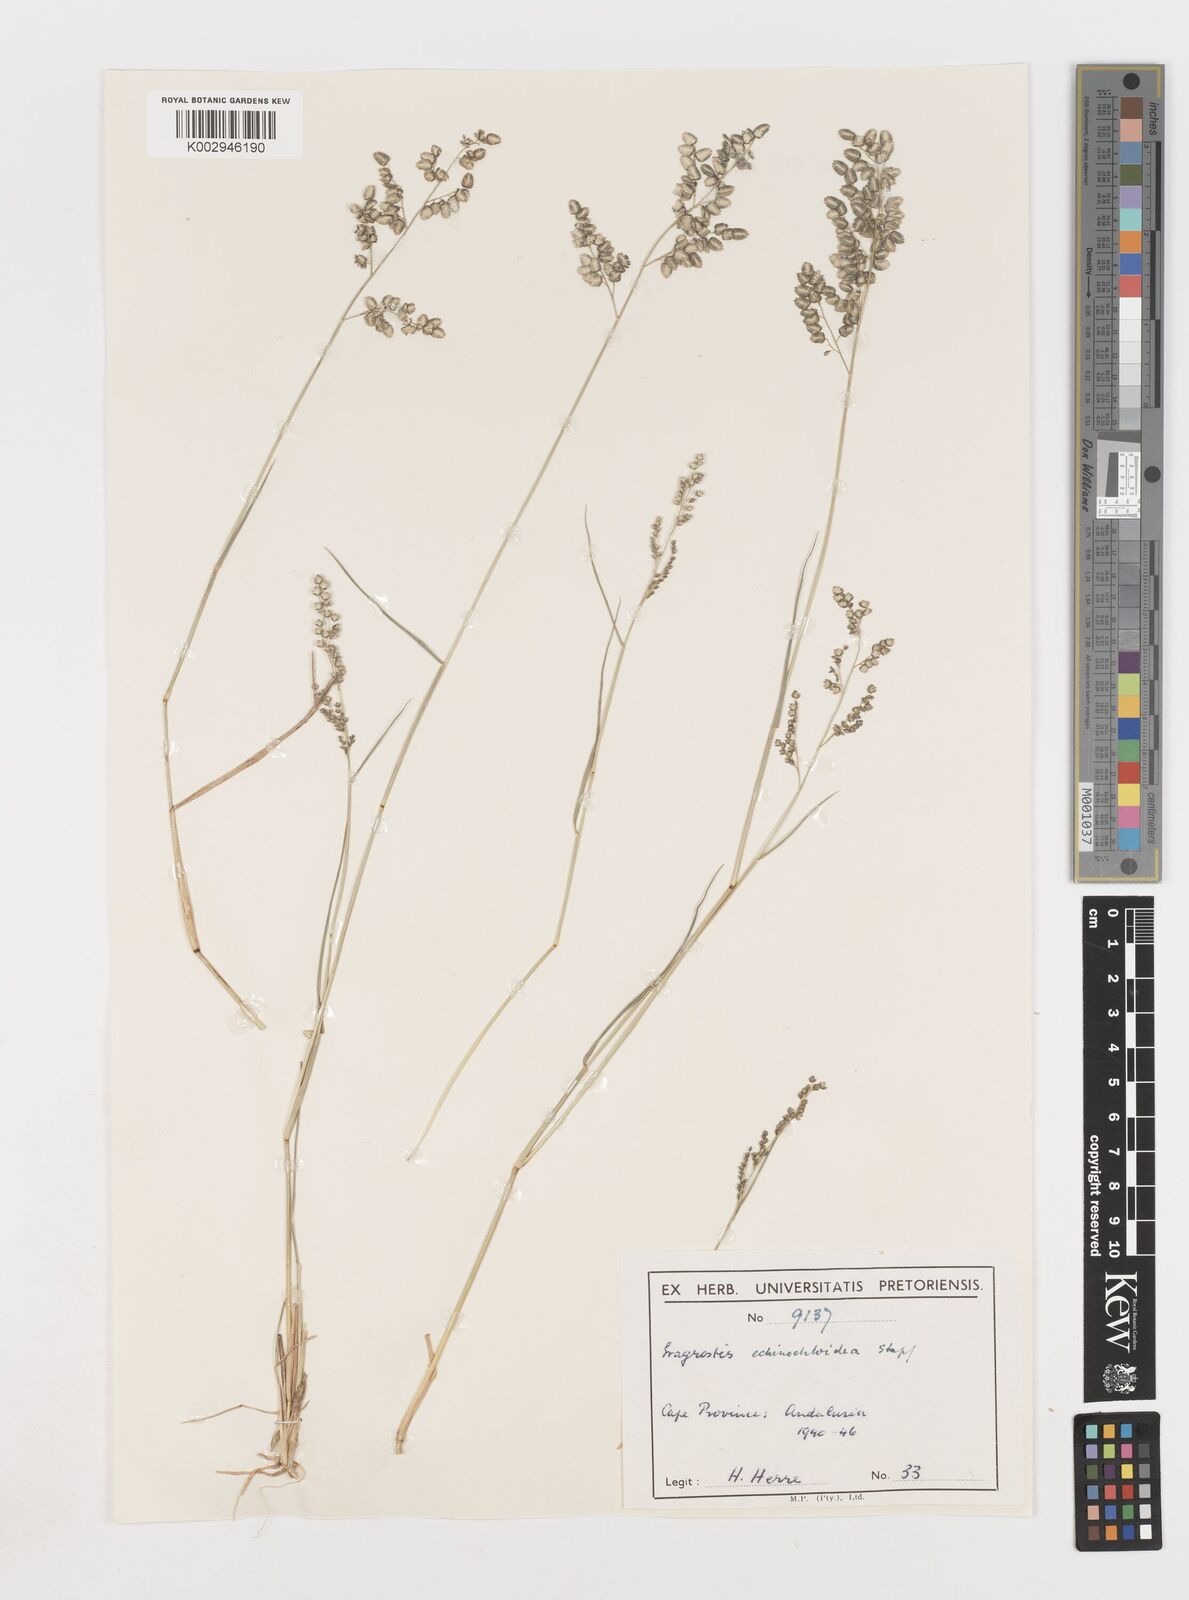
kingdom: Plantae
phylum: Tracheophyta
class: Liliopsida
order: Poales
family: Poaceae
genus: Eragrostis
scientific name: Eragrostis echinochloidea
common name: African lovegrass
